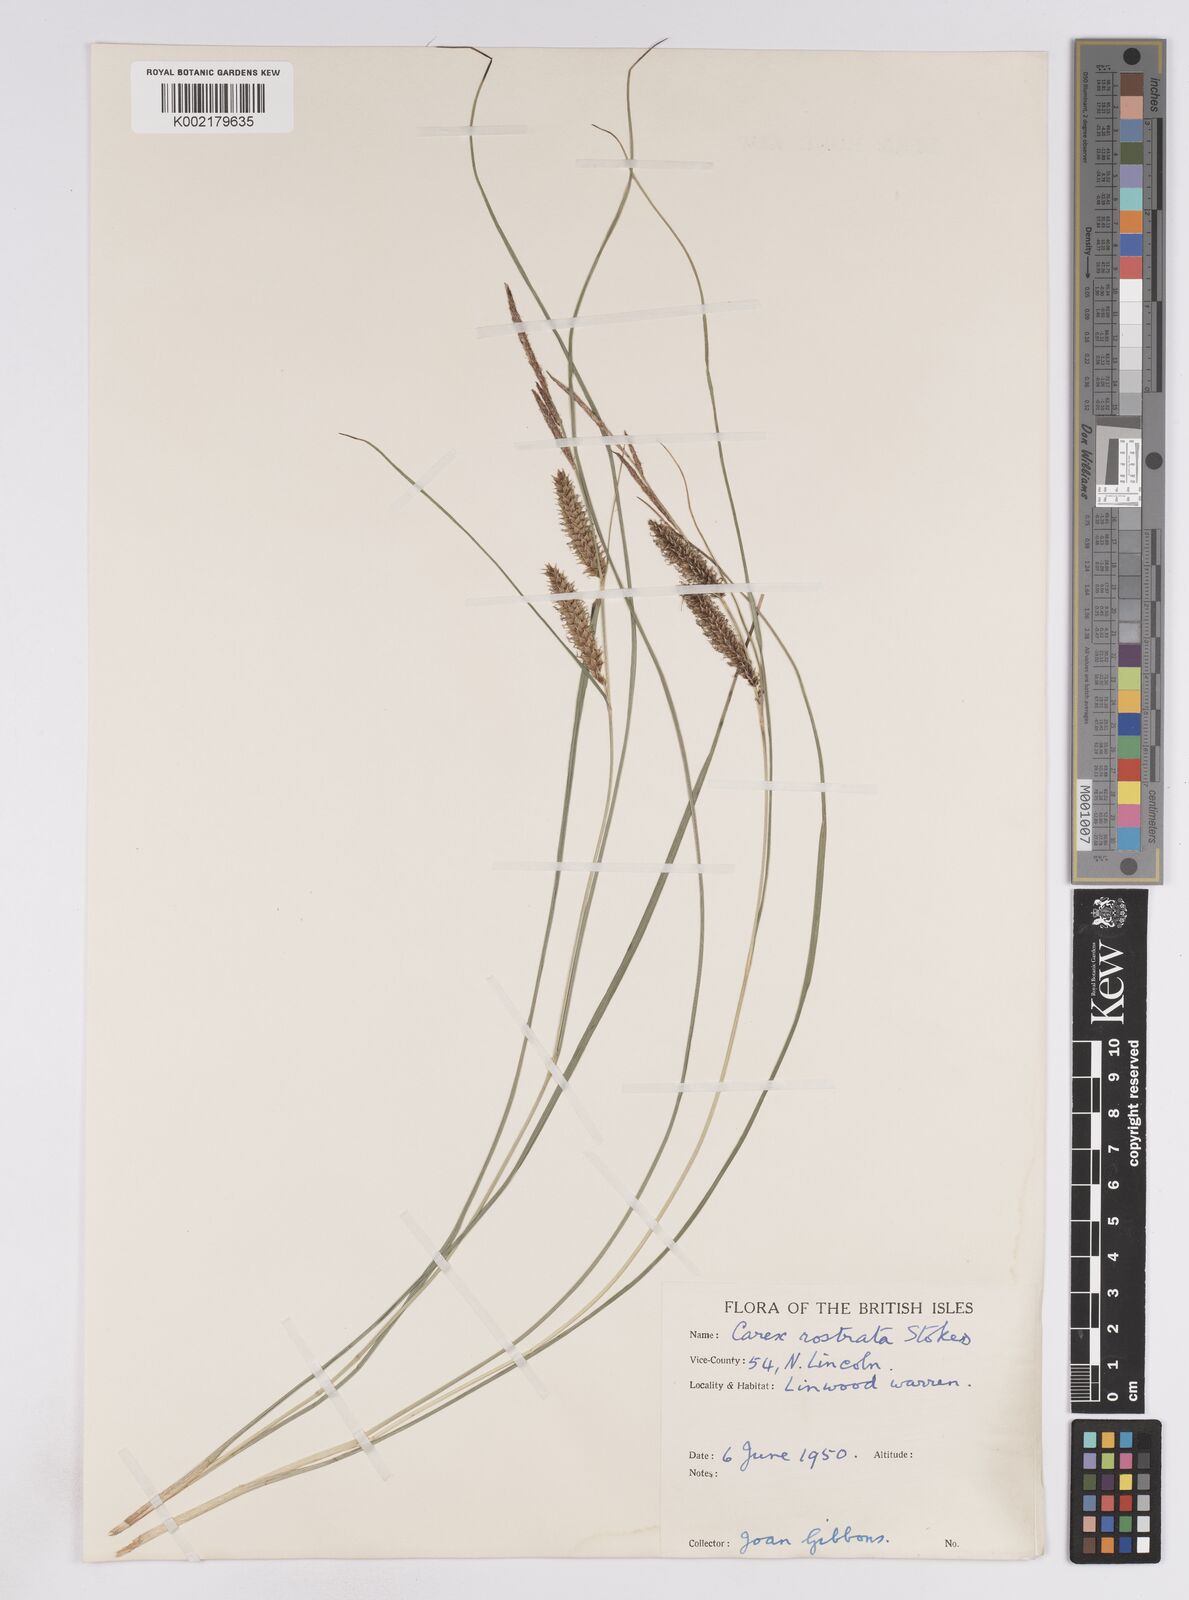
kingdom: Plantae
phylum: Tracheophyta
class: Liliopsida
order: Poales
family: Cyperaceae
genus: Carex
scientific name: Carex rostrata
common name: Bottle sedge
